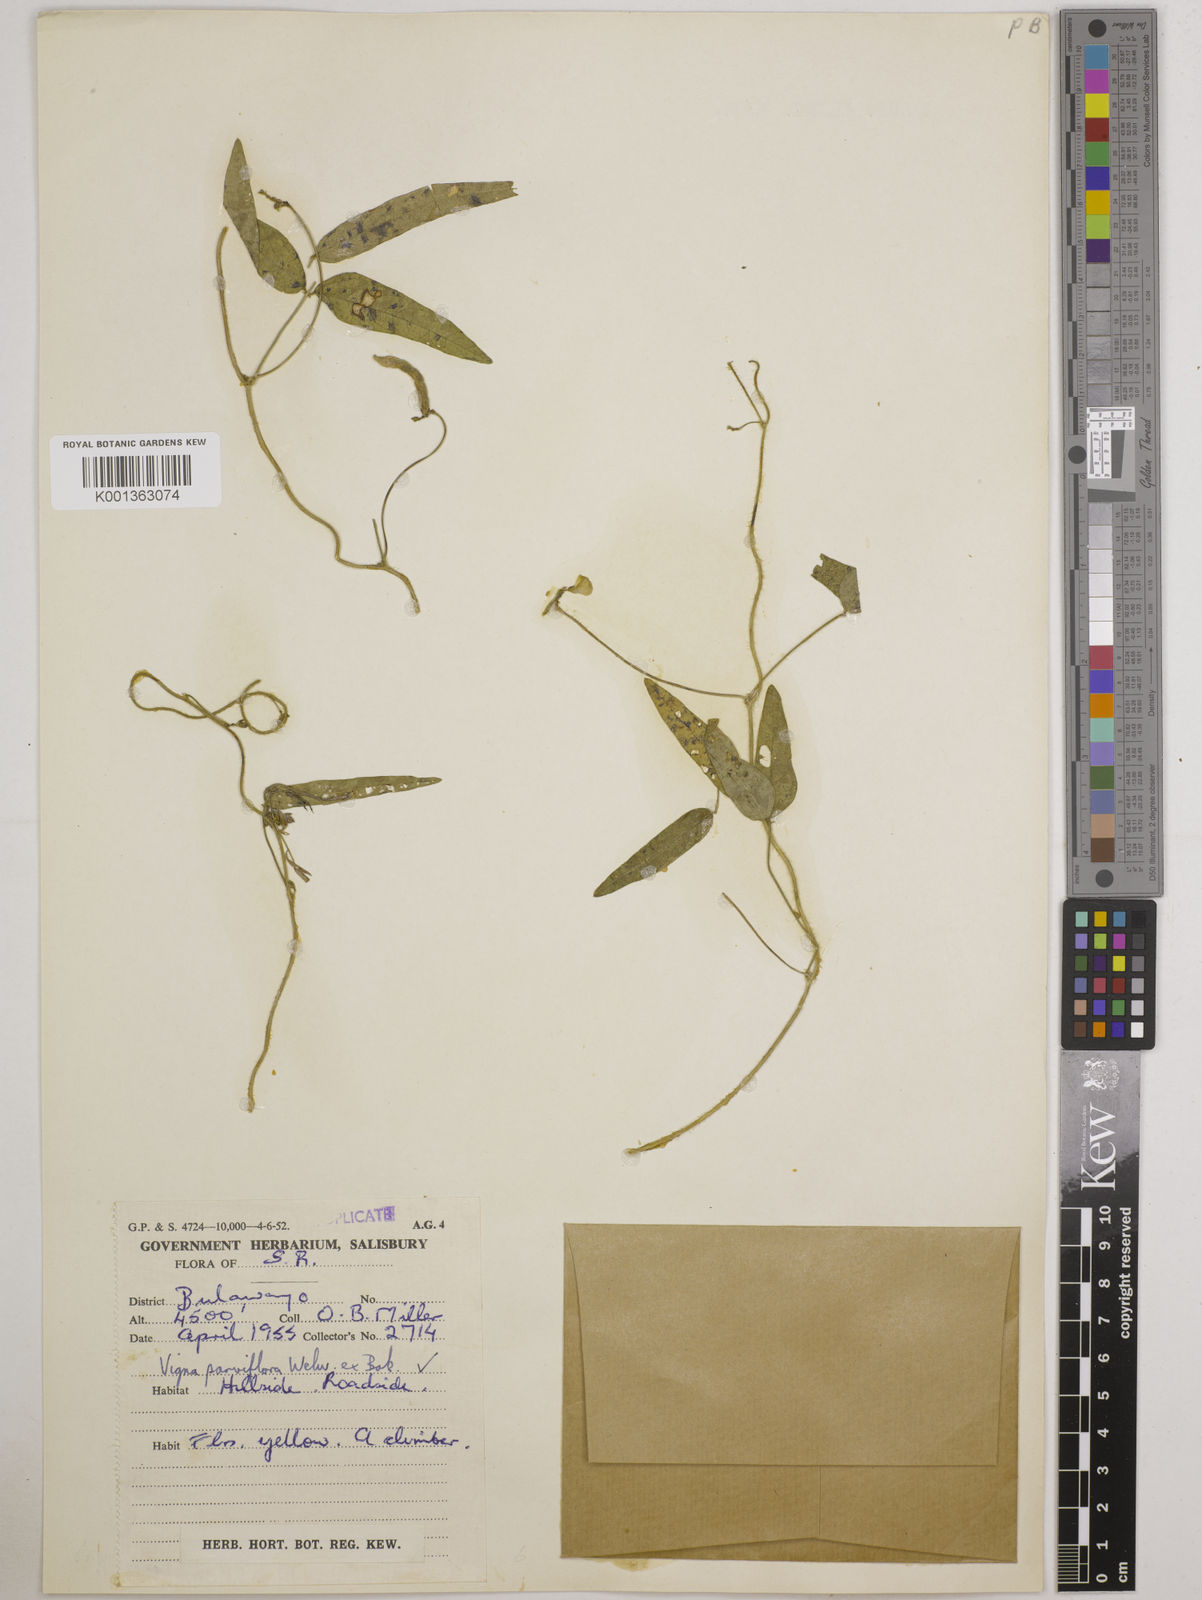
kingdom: Plantae
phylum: Tracheophyta
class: Magnoliopsida
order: Fabales
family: Fabaceae
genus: Vigna
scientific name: Vigna
